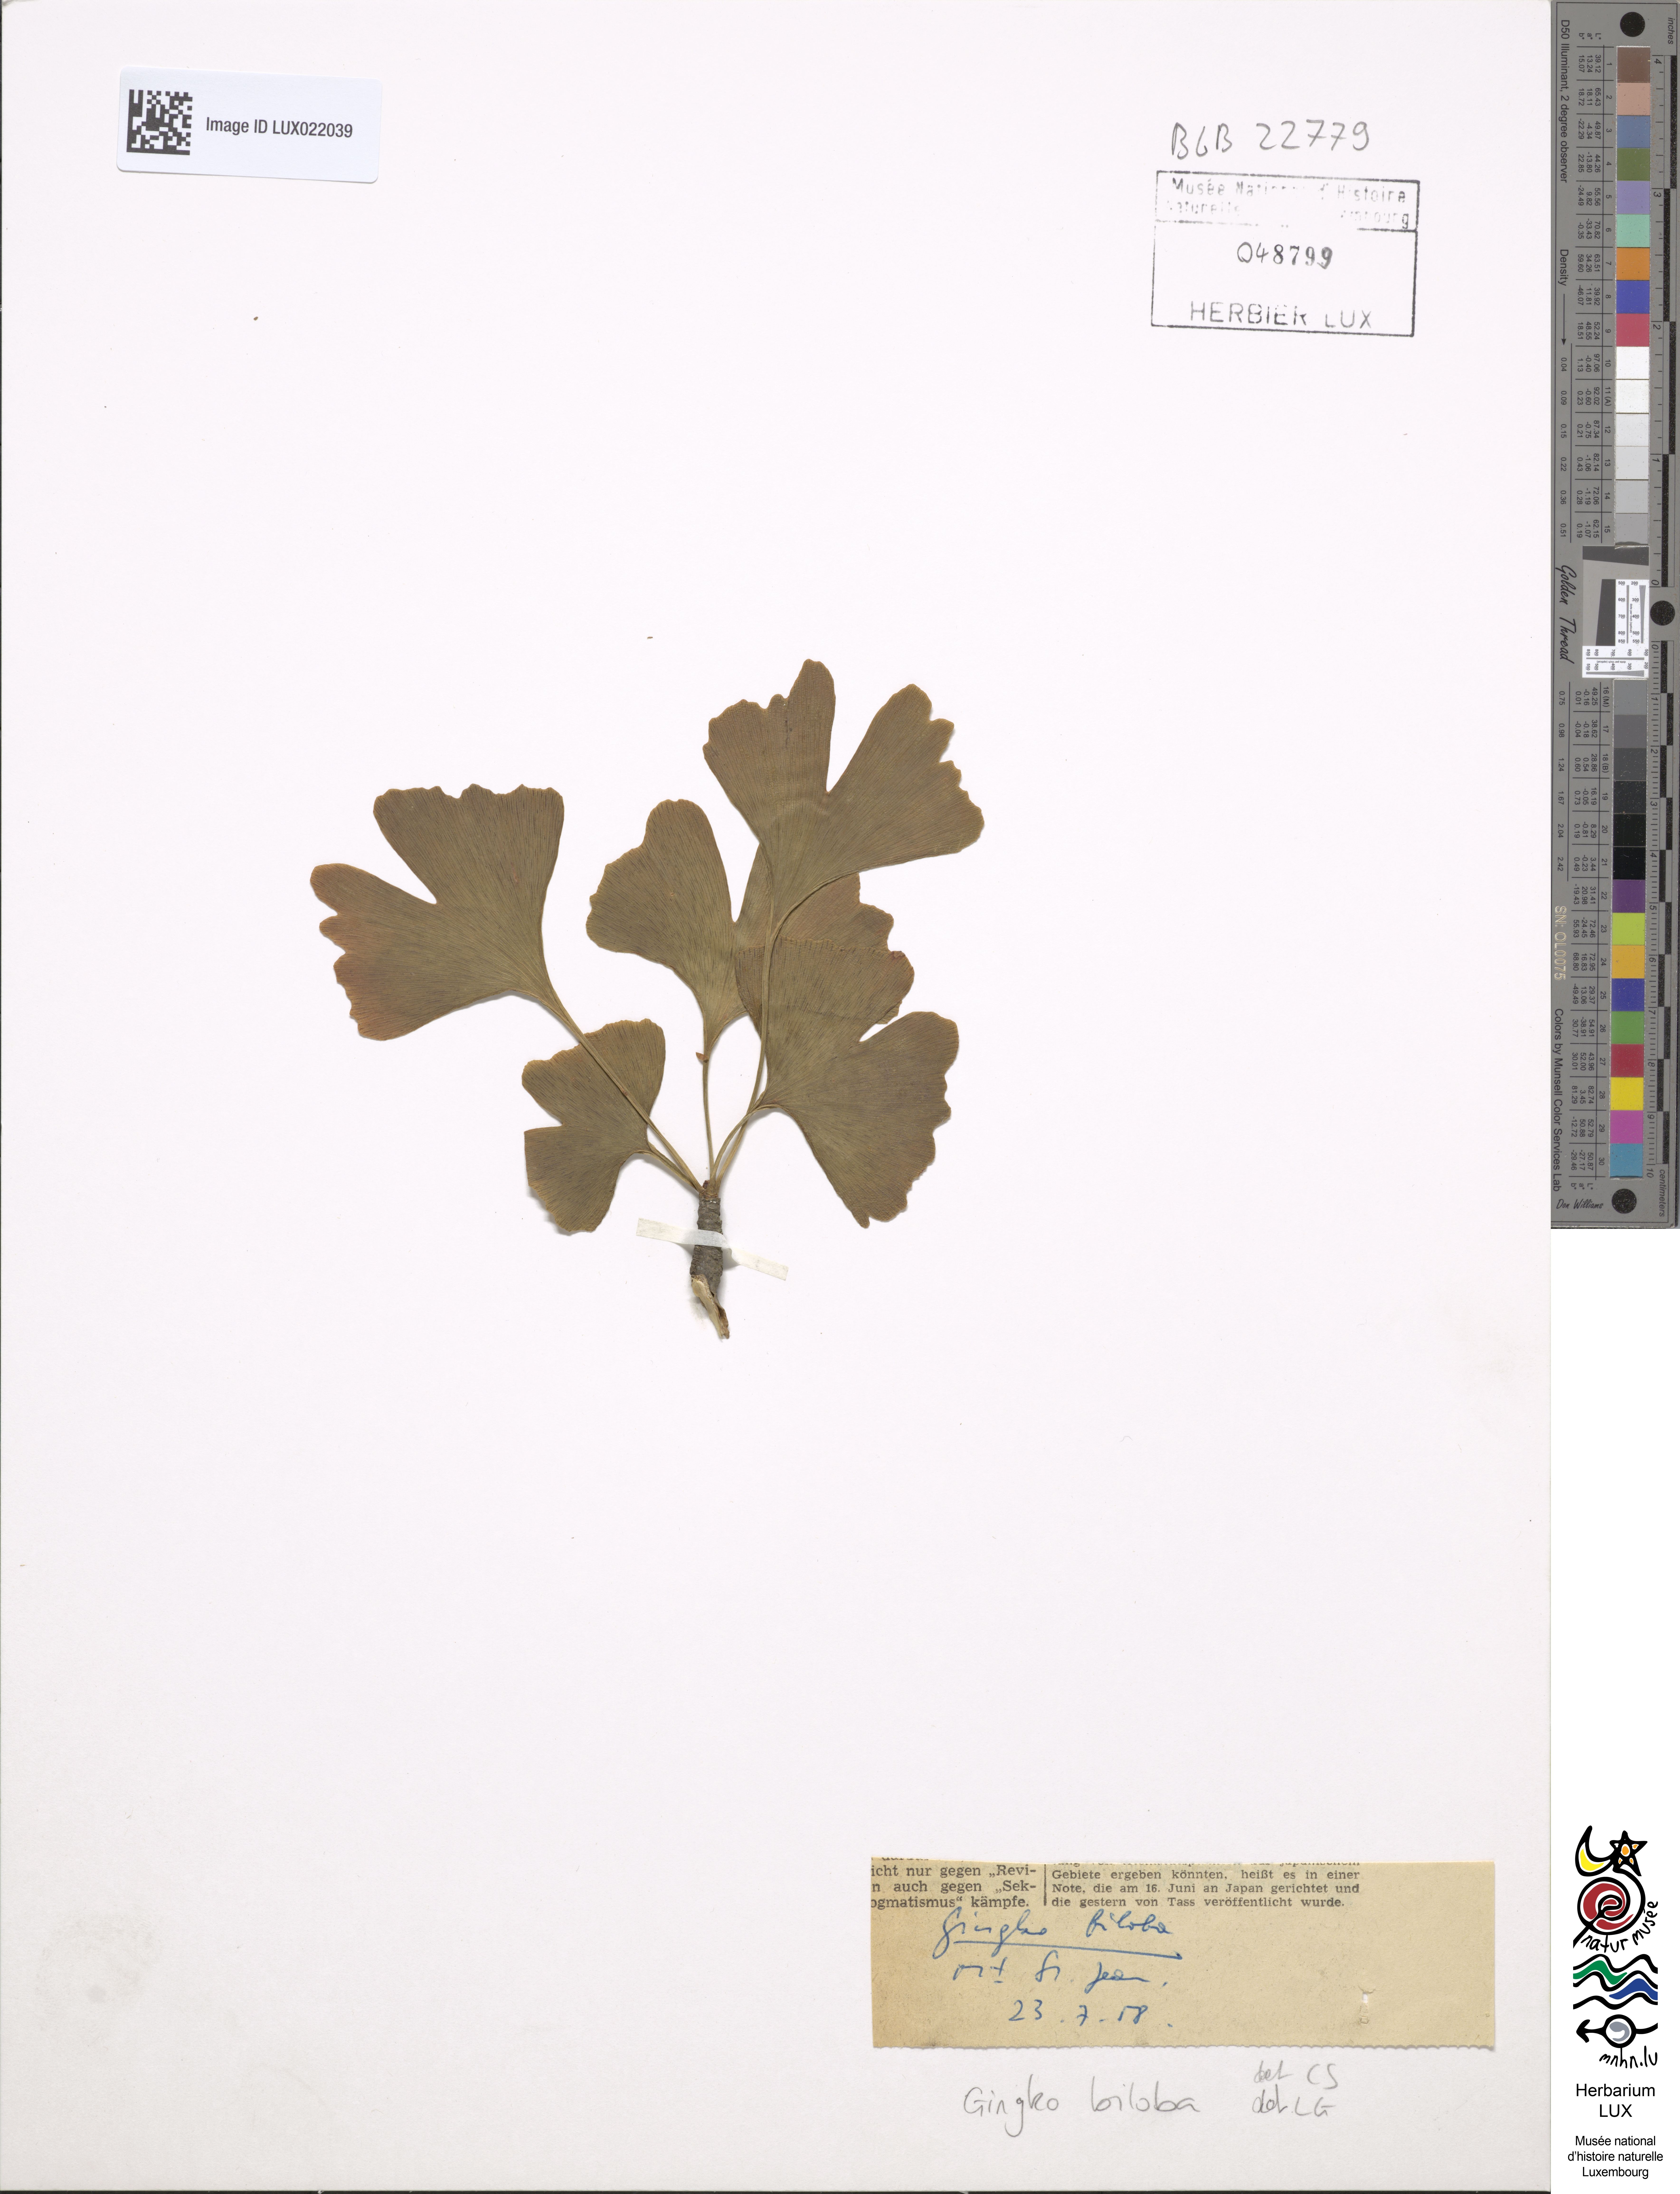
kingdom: Plantae
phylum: Tracheophyta
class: Ginkgoopsida
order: Ginkgoales
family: Ginkgoaceae
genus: Ginkgo
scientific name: Ginkgo biloba
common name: Ginkgo
